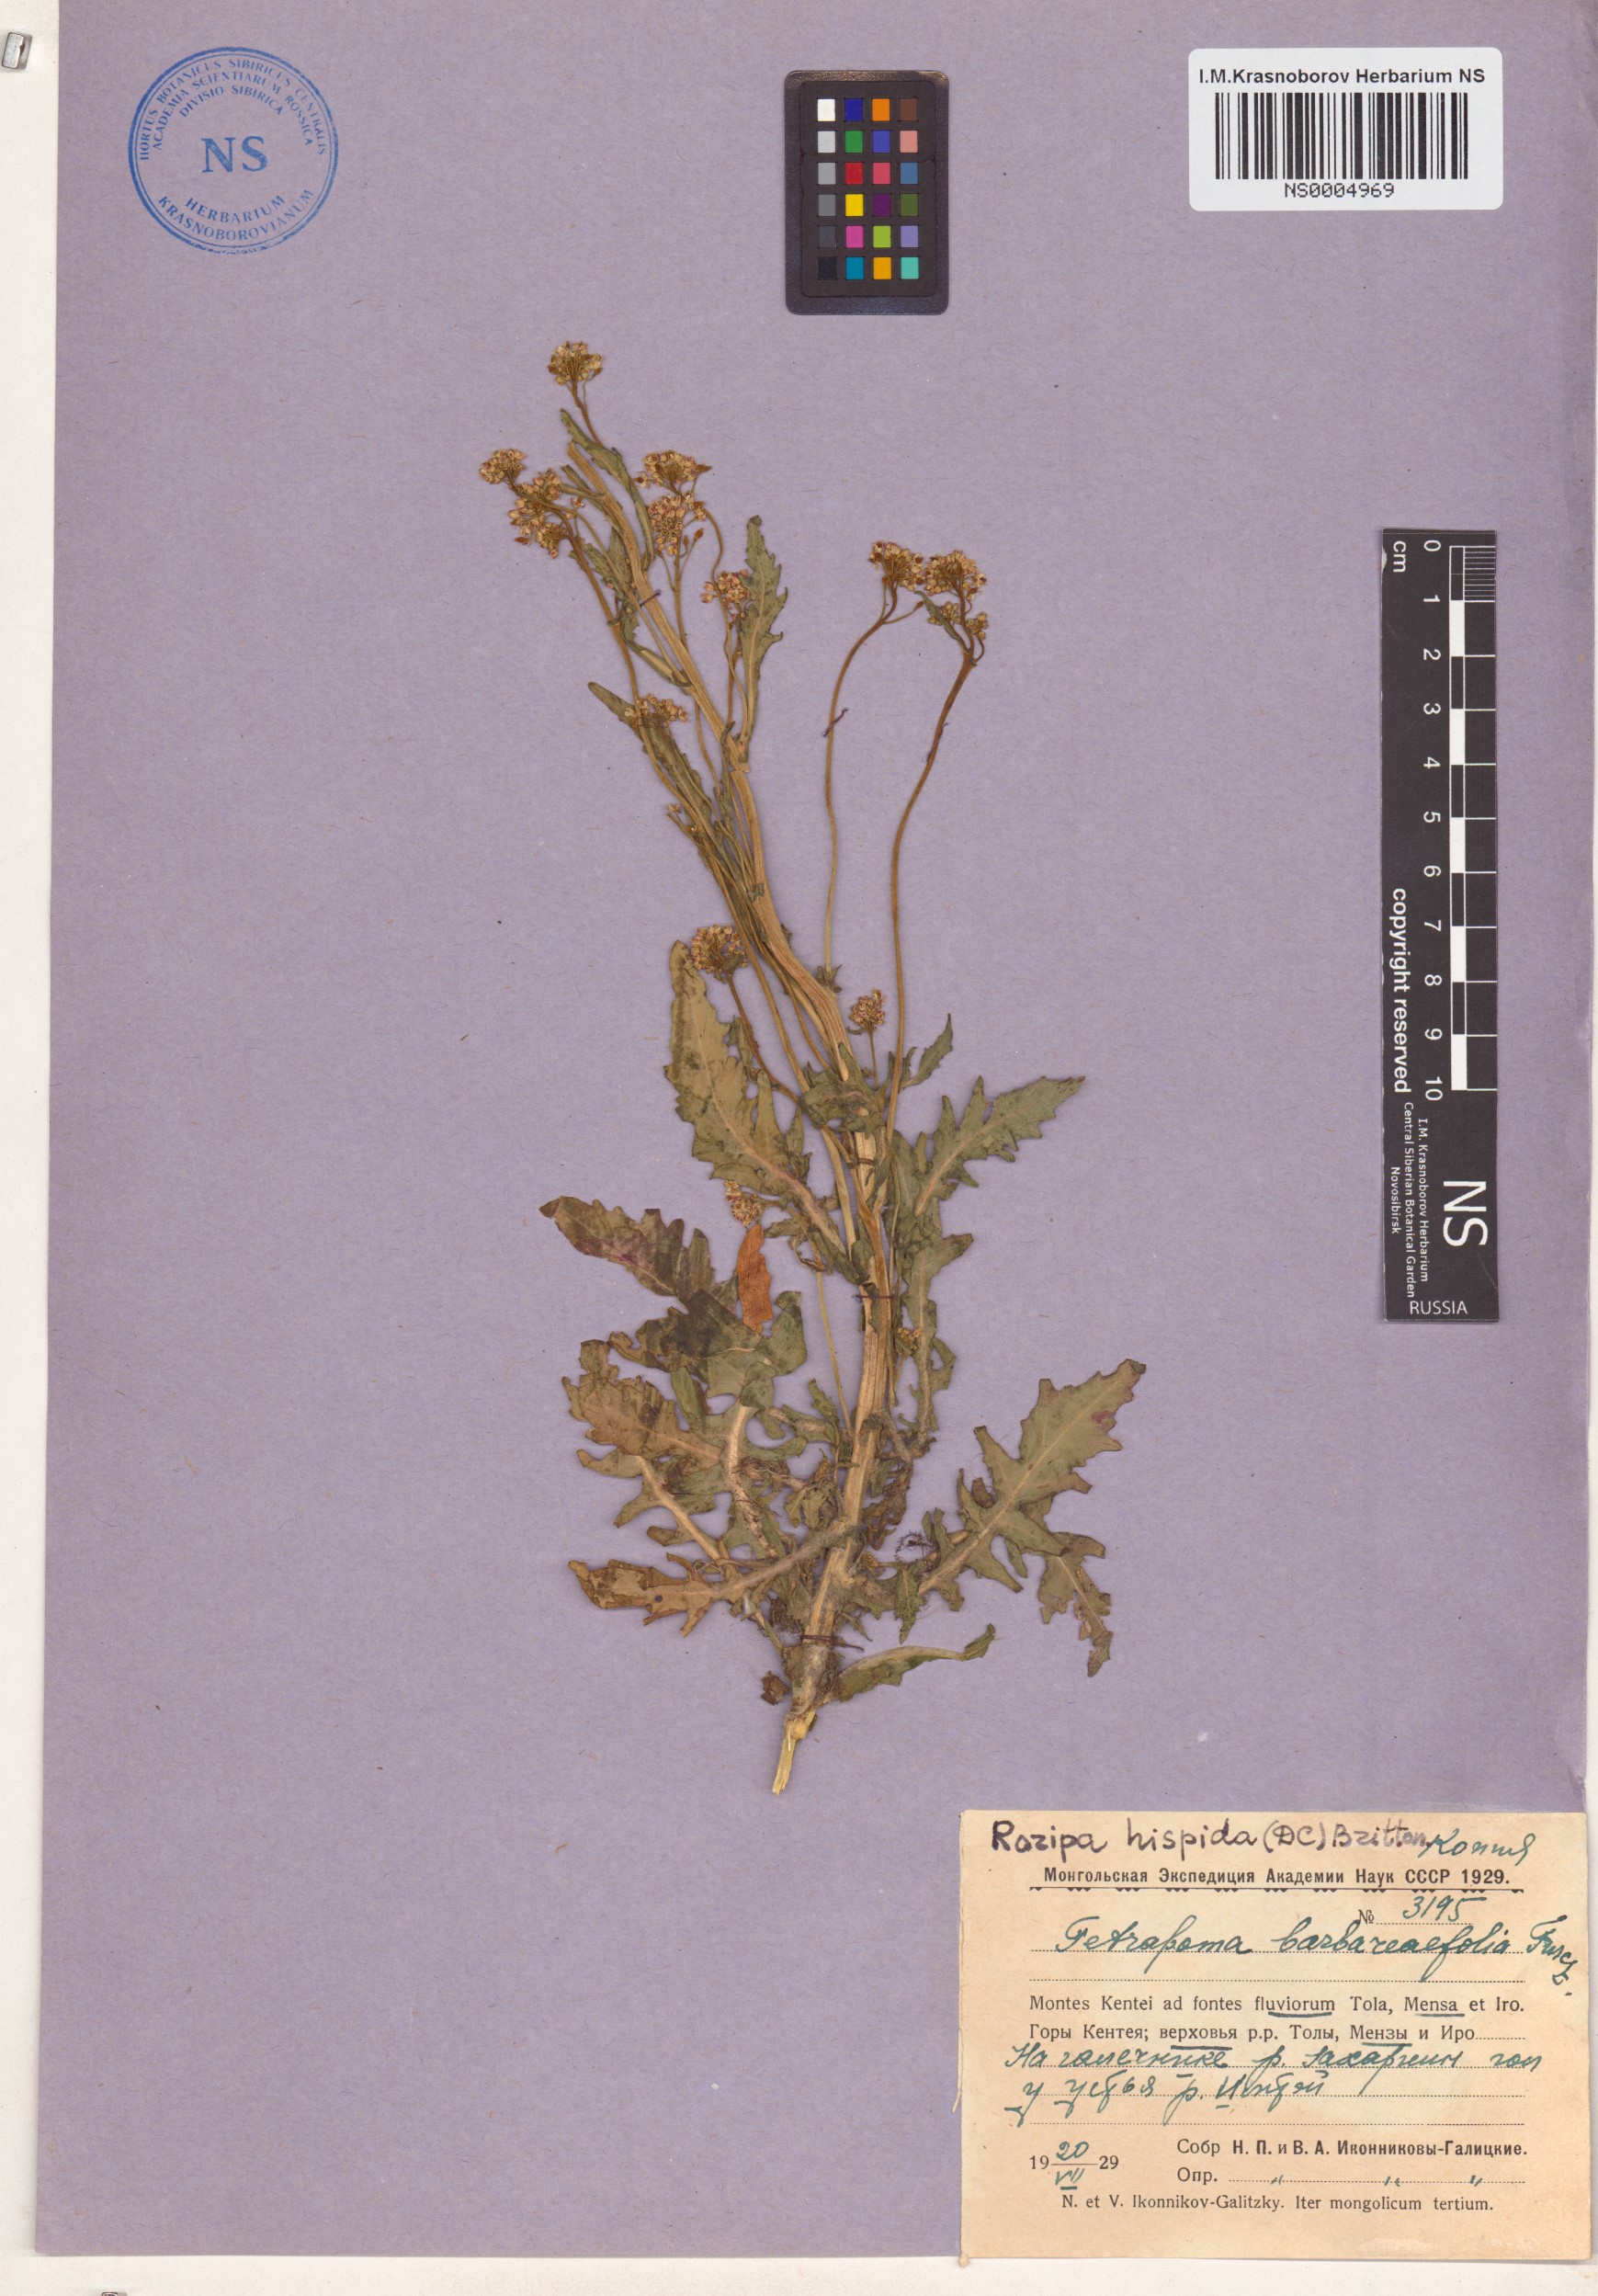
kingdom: Plantae
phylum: Tracheophyta
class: Magnoliopsida
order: Brassicales
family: Brassicaceae
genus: Rorippa
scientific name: Rorippa hispida
